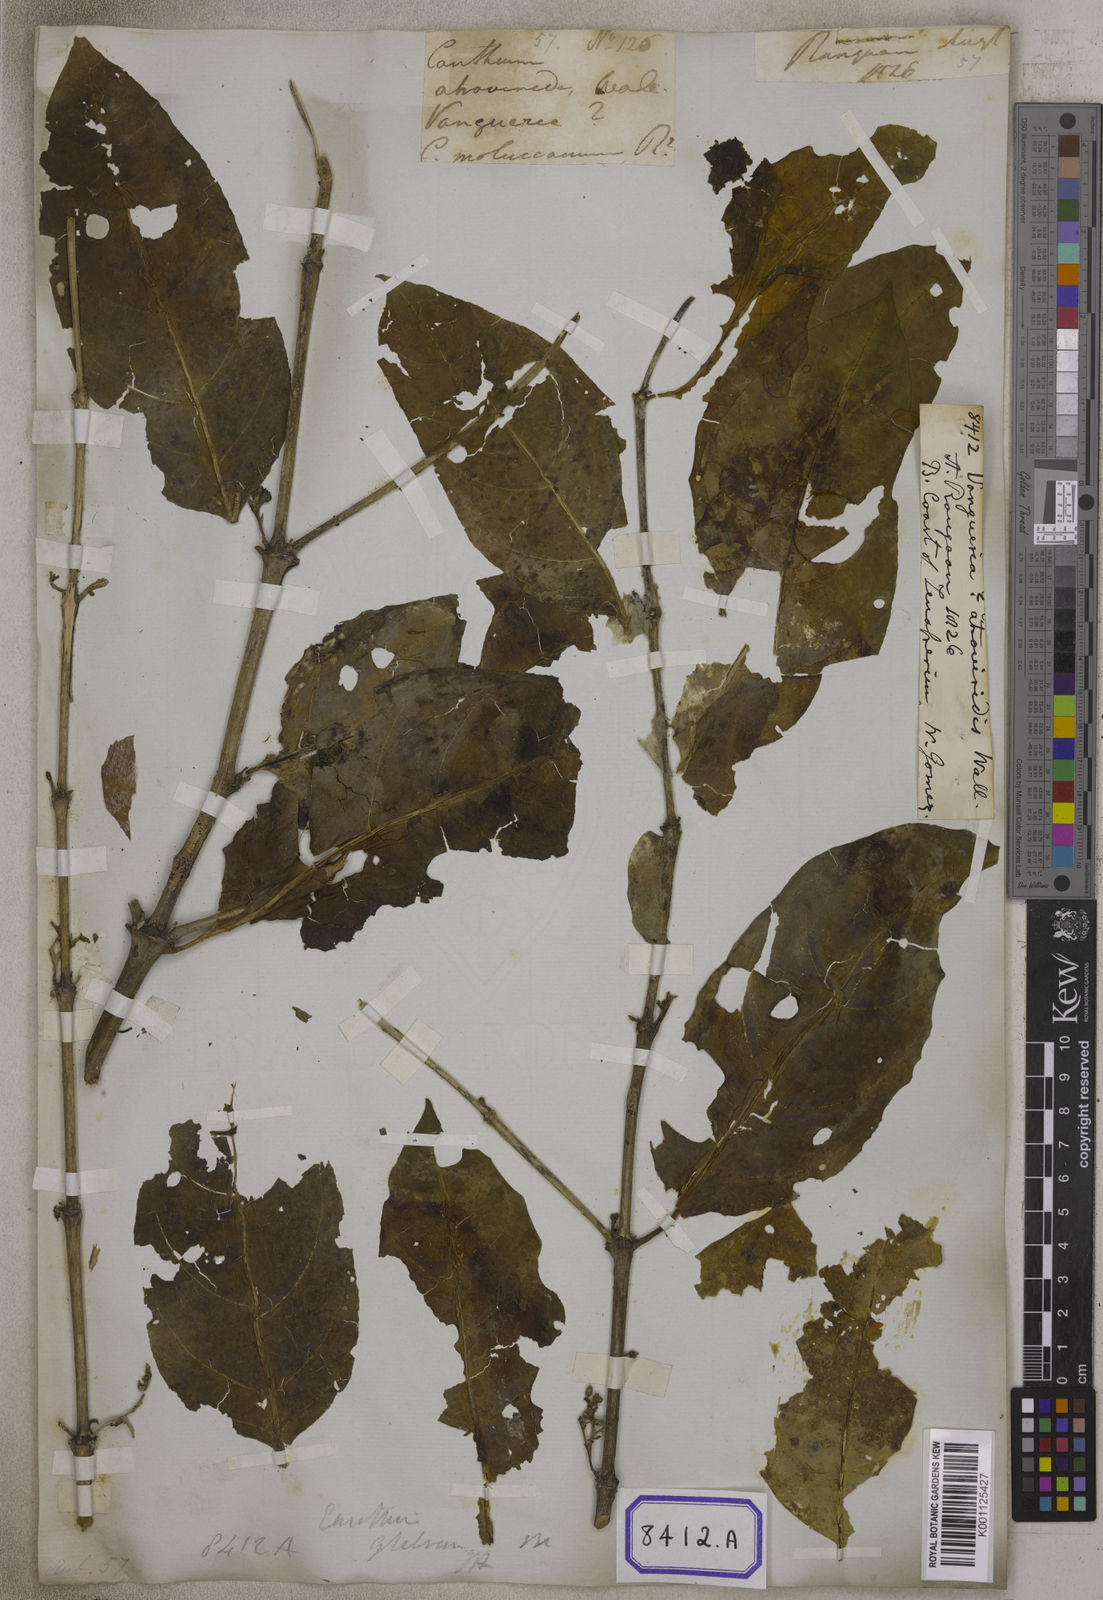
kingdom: Plantae
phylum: Tracheophyta
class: Magnoliopsida
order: Gentianales
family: Rubiaceae
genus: Vangueria
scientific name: Vangueria
